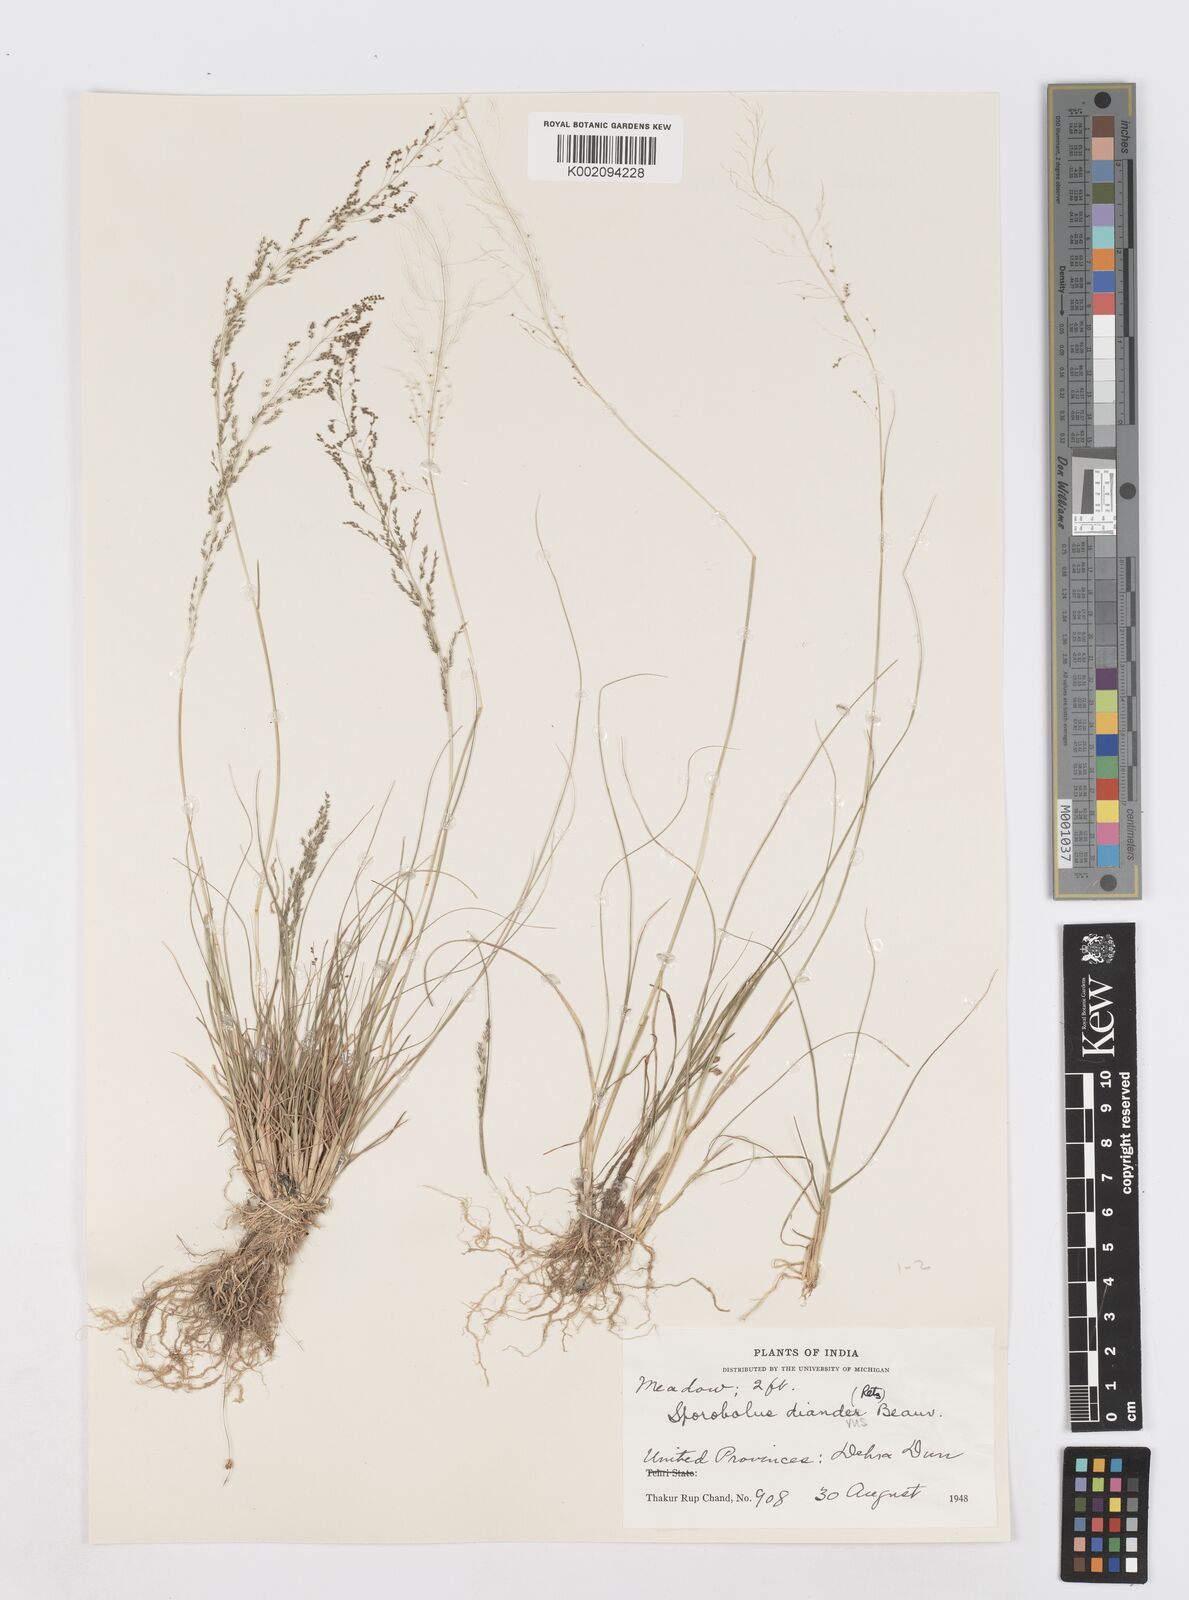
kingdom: Plantae
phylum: Tracheophyta
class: Liliopsida
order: Poales
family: Poaceae
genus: Sporobolus
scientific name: Sporobolus diandrus
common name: Tussock dropseed
